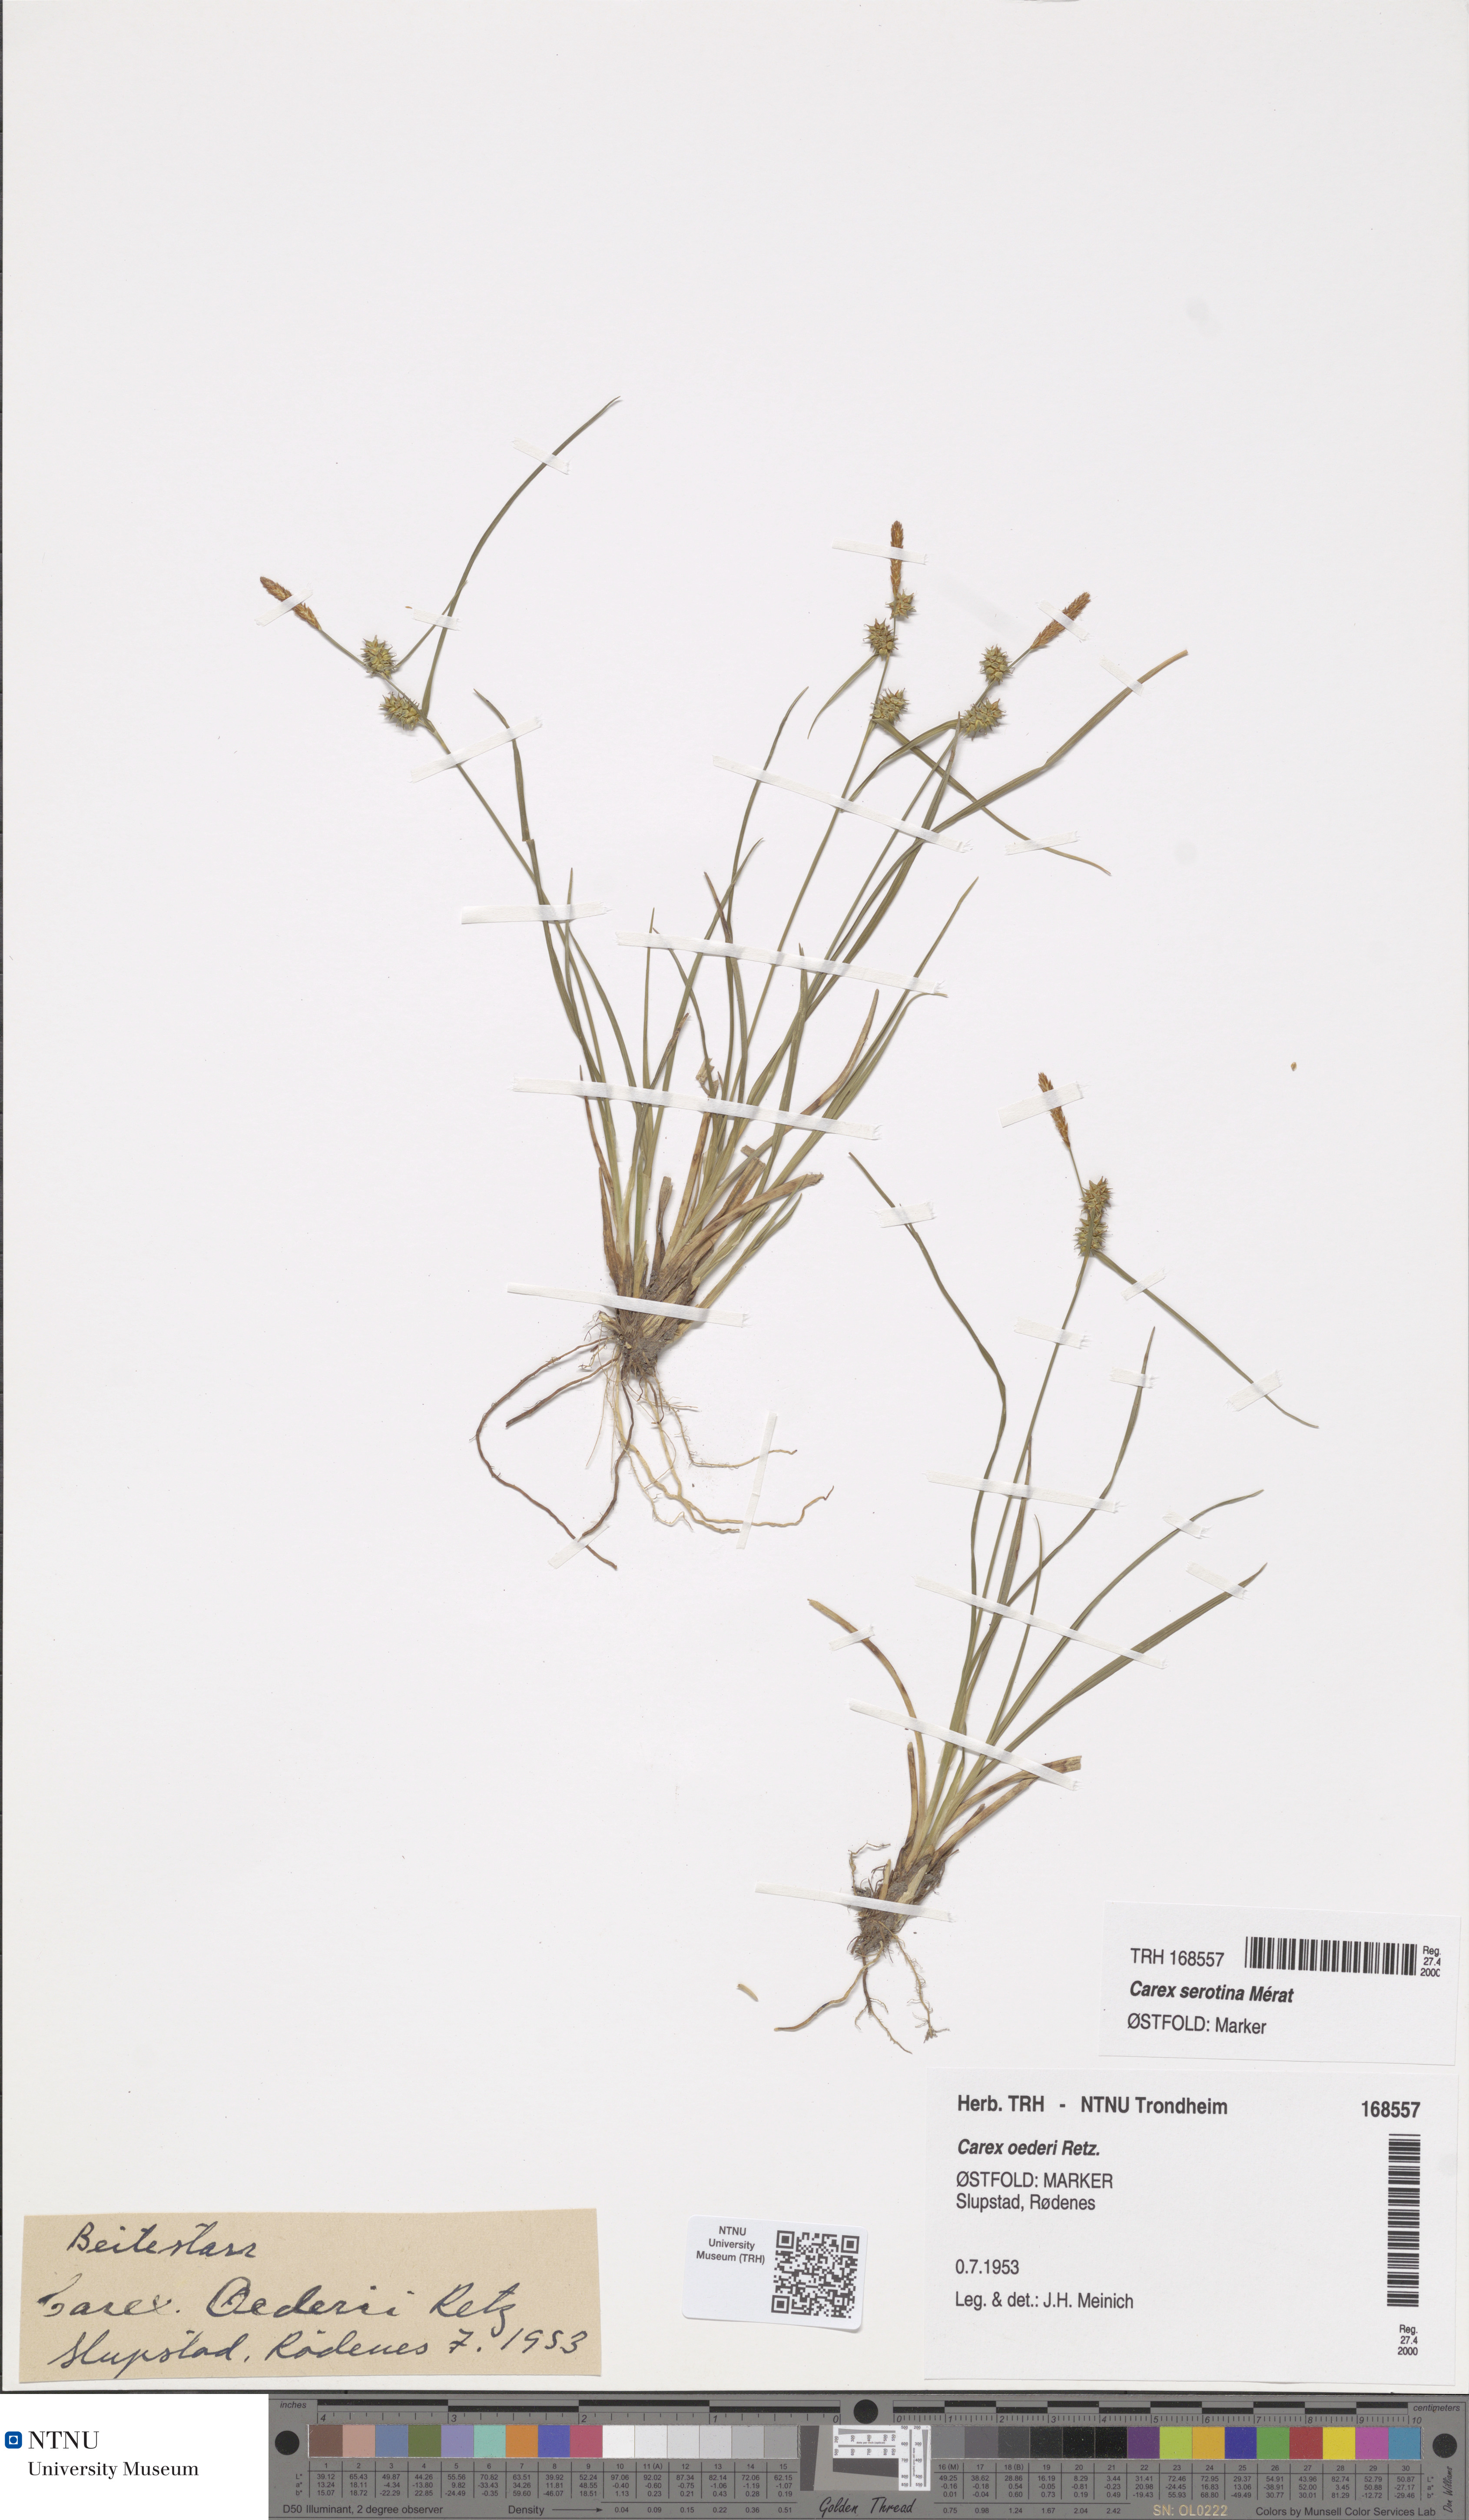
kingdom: Plantae
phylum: Tracheophyta
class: Liliopsida
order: Poales
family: Cyperaceae
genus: Carex
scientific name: Carex oederi
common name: Common & small-fruited yellow-sedge
